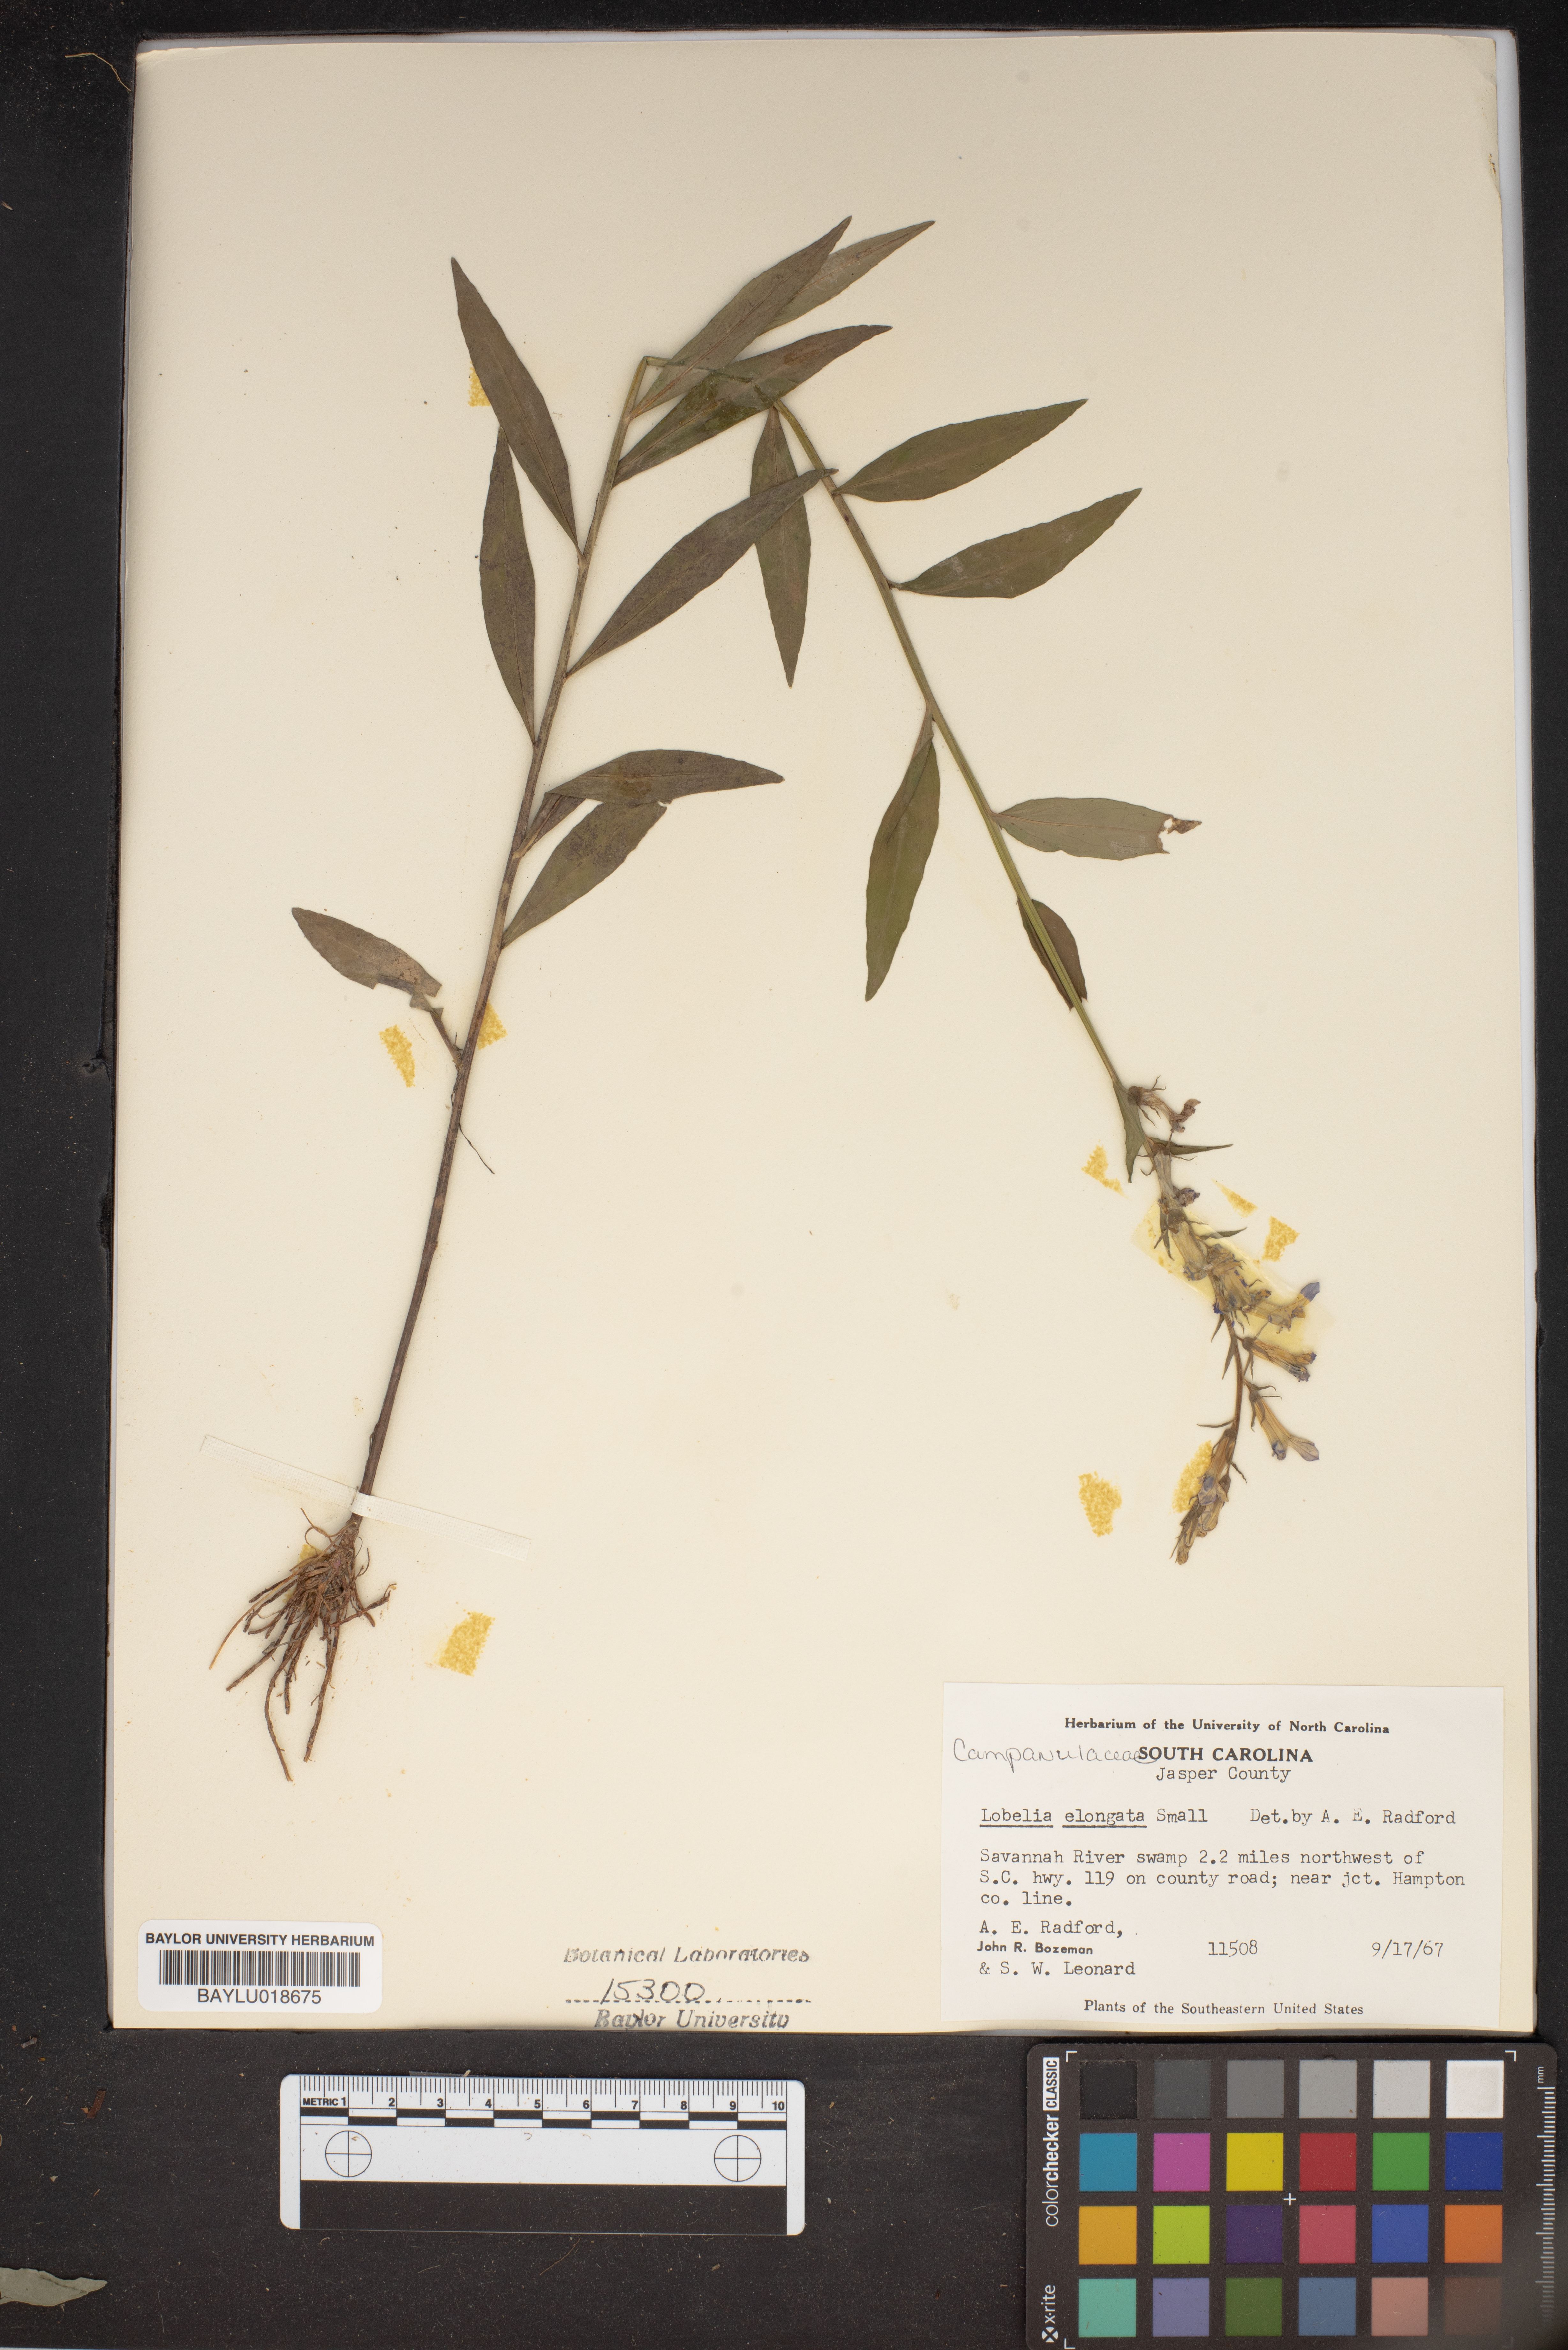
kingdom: Plantae
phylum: Tracheophyta
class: Magnoliopsida
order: Asterales
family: Campanulaceae
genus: Lobelia
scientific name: Lobelia elongata
